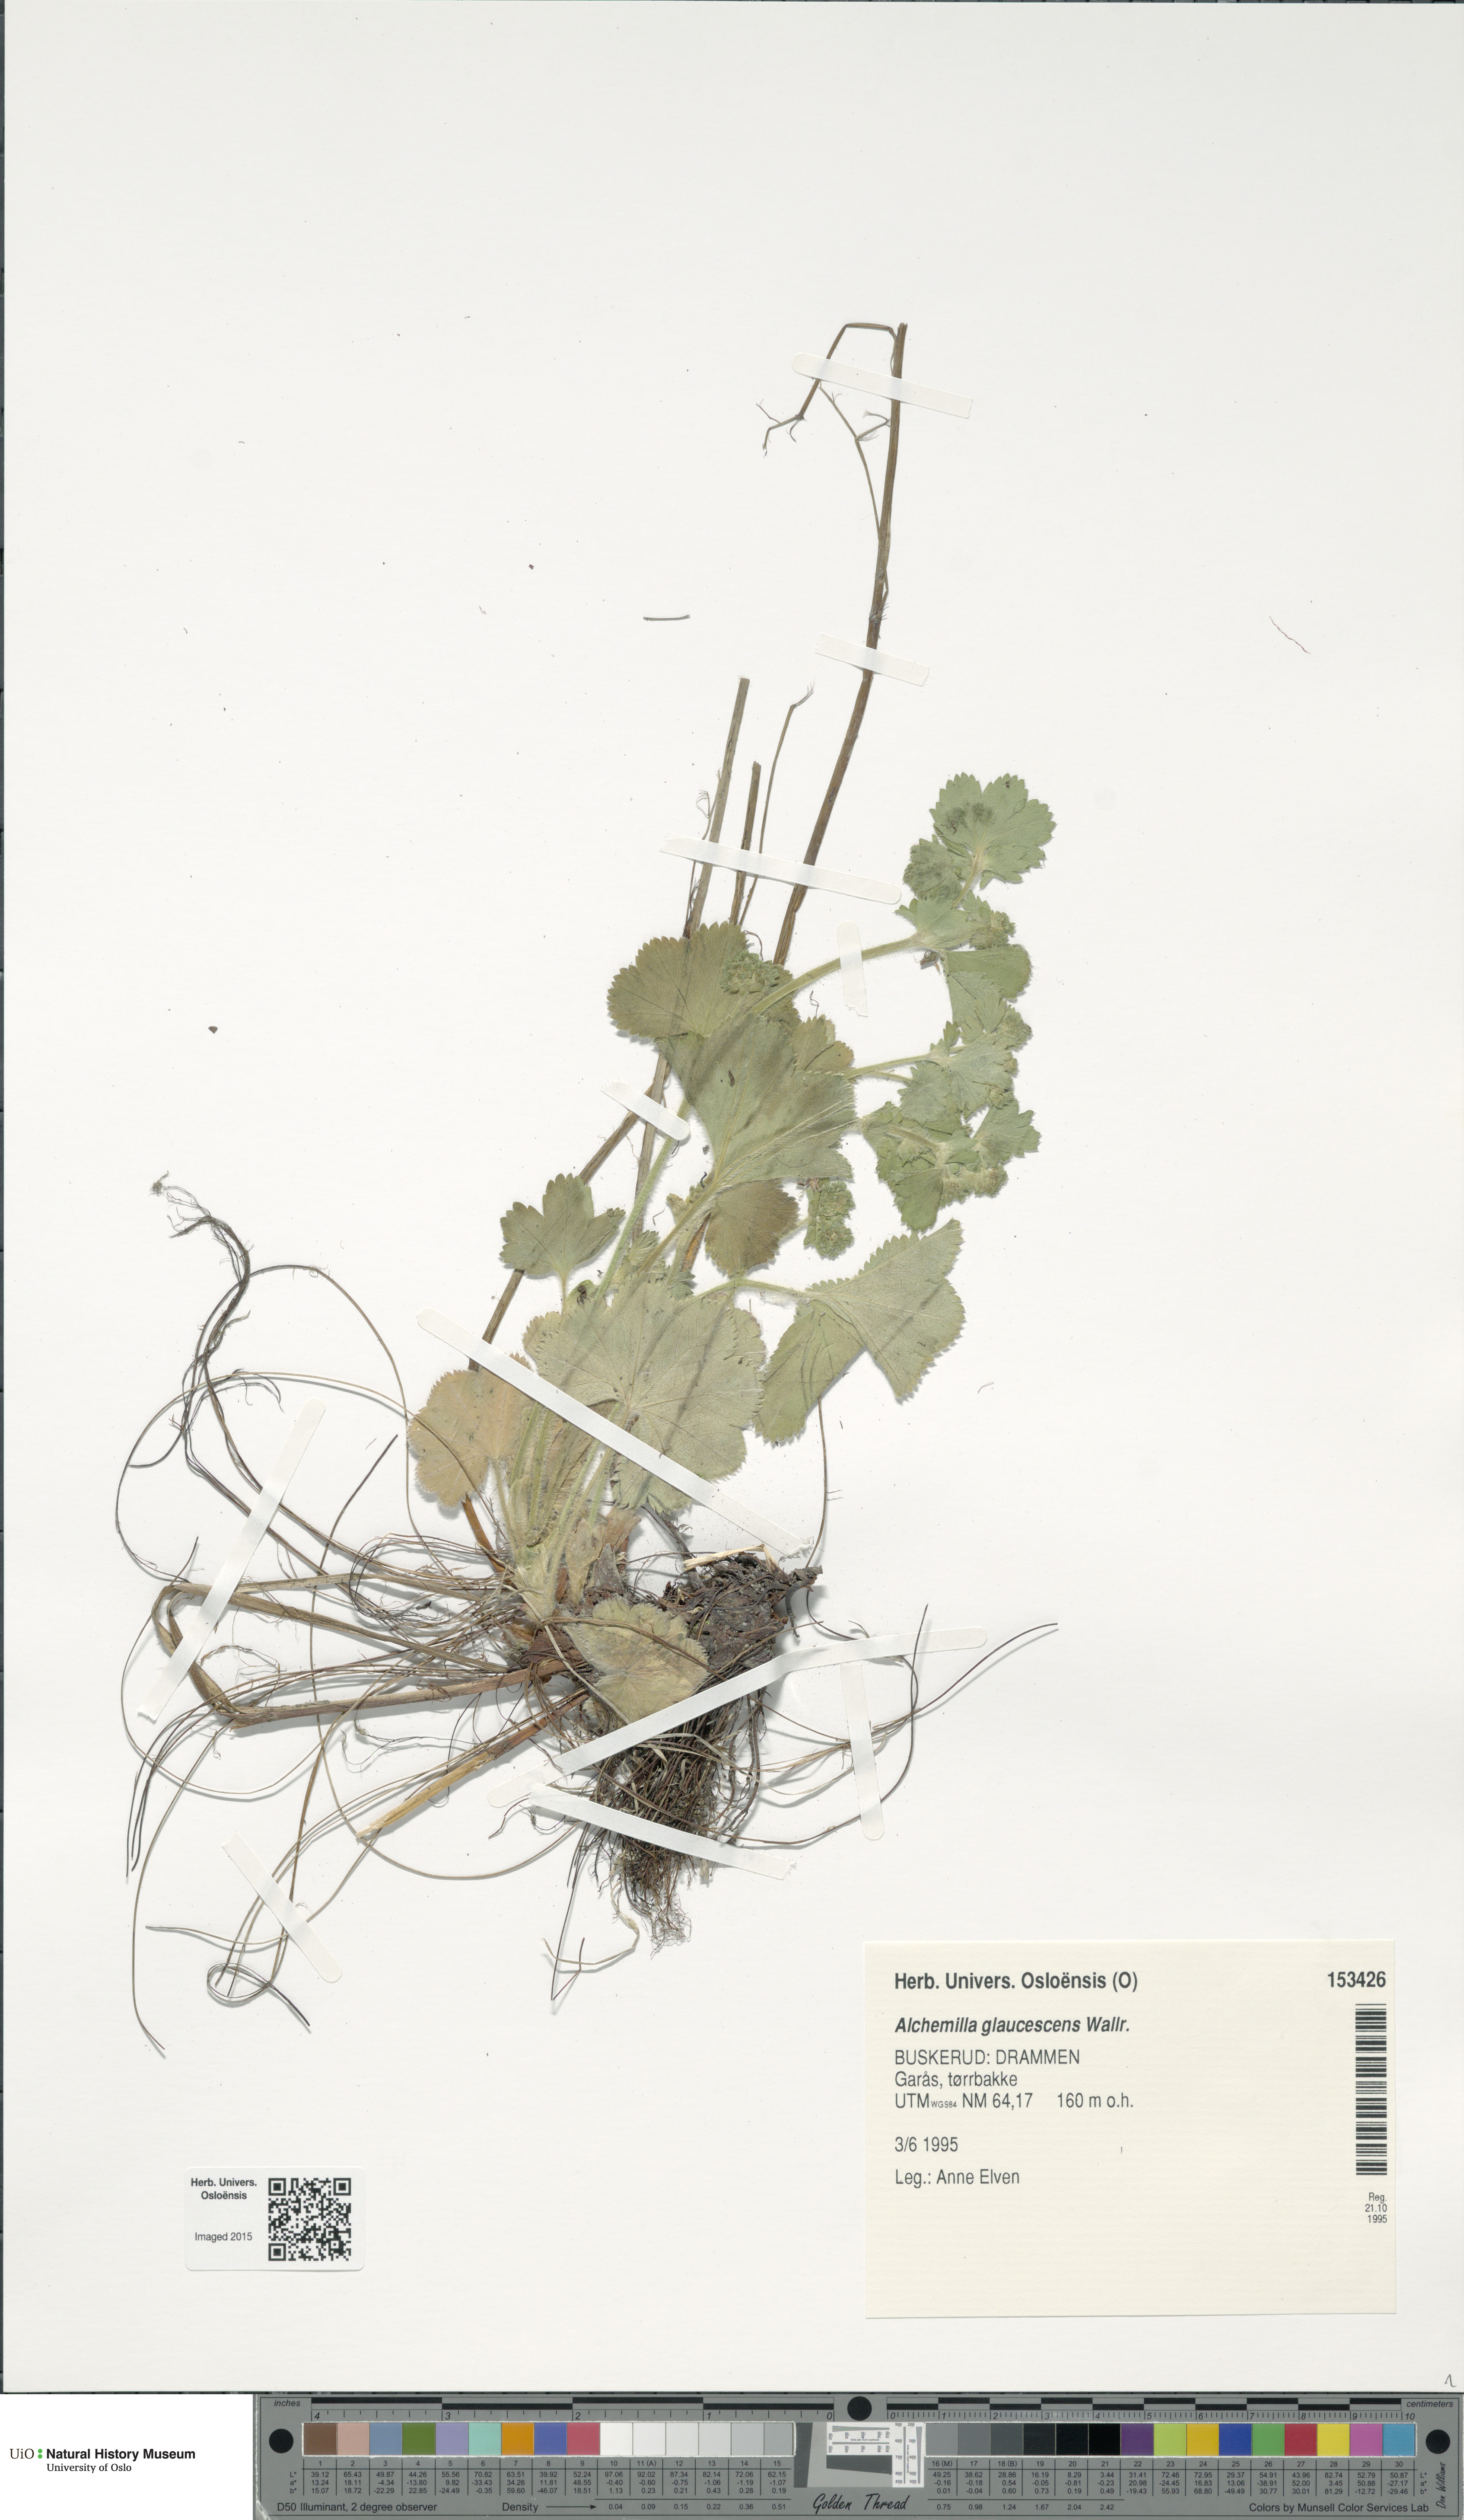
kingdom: Plantae
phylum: Tracheophyta
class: Magnoliopsida
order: Rosales
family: Rosaceae
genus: Alchemilla
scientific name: Alchemilla glaucescens
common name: Silky lady's mantle
